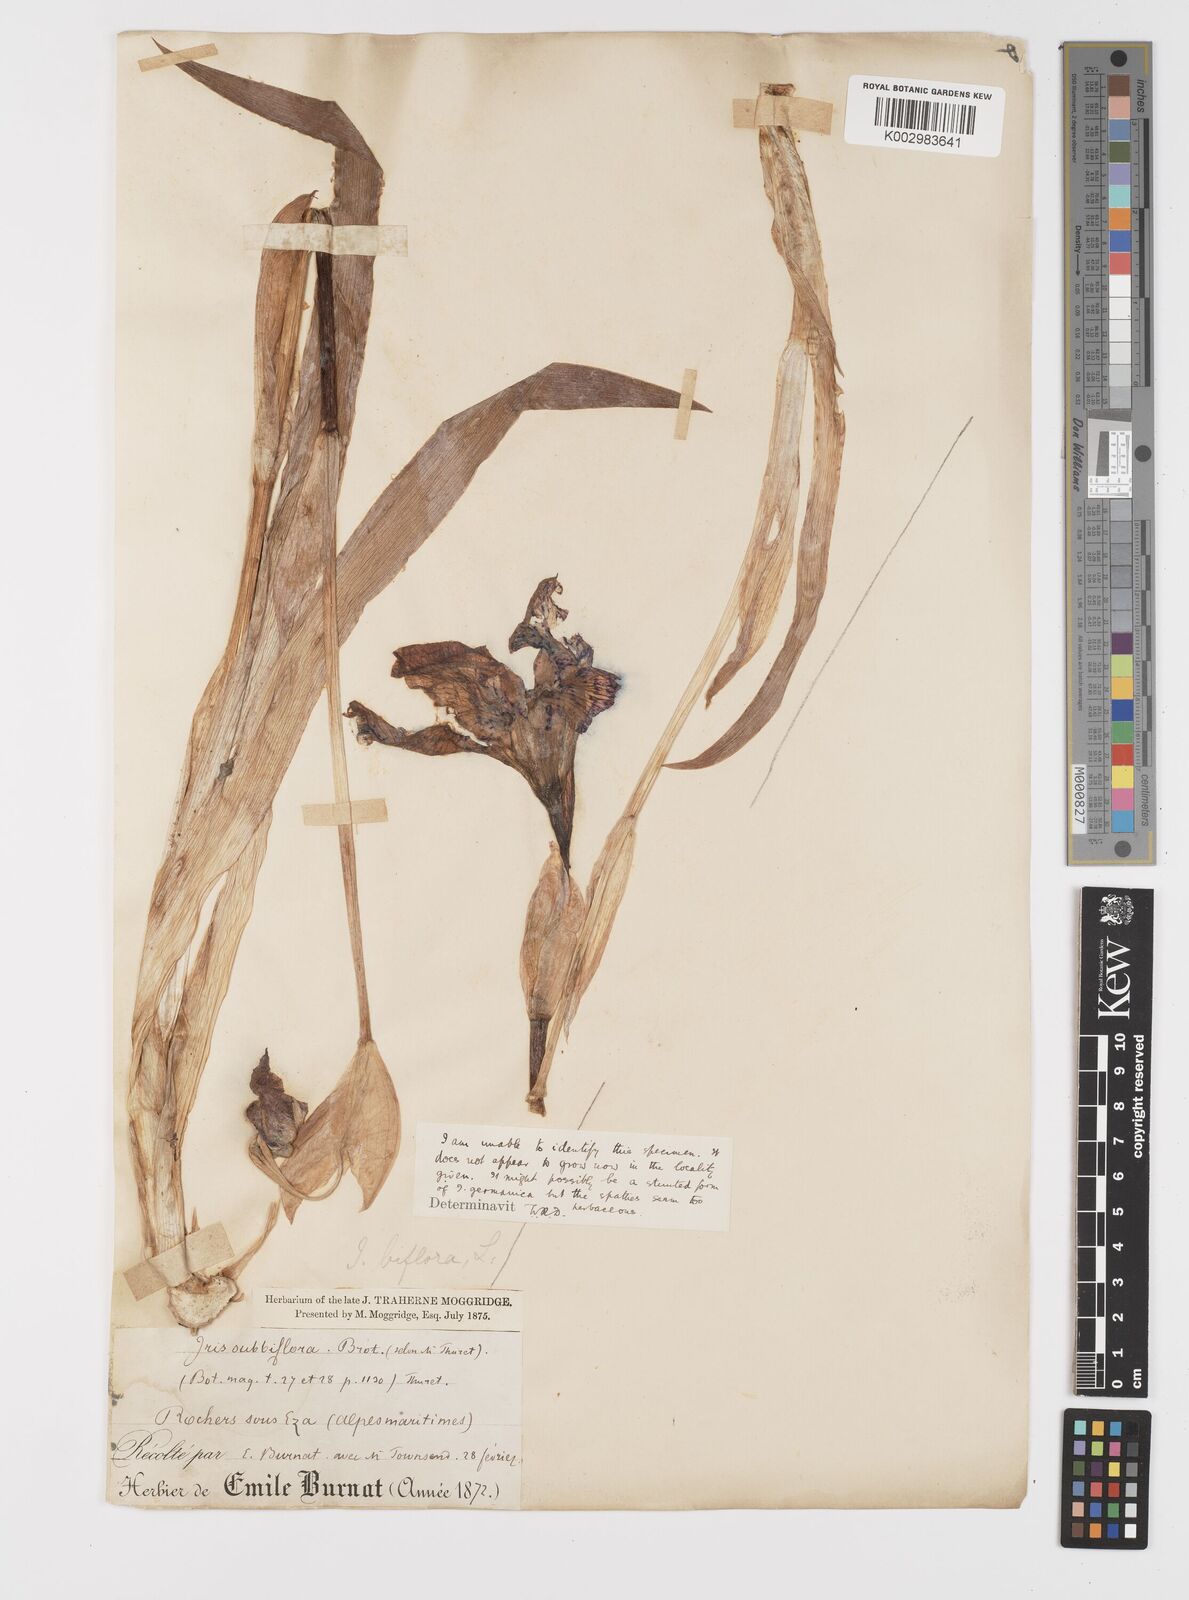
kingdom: Plantae
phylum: Tracheophyta
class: Liliopsida
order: Asparagales
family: Iridaceae
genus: Iris
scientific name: Iris lutescens
